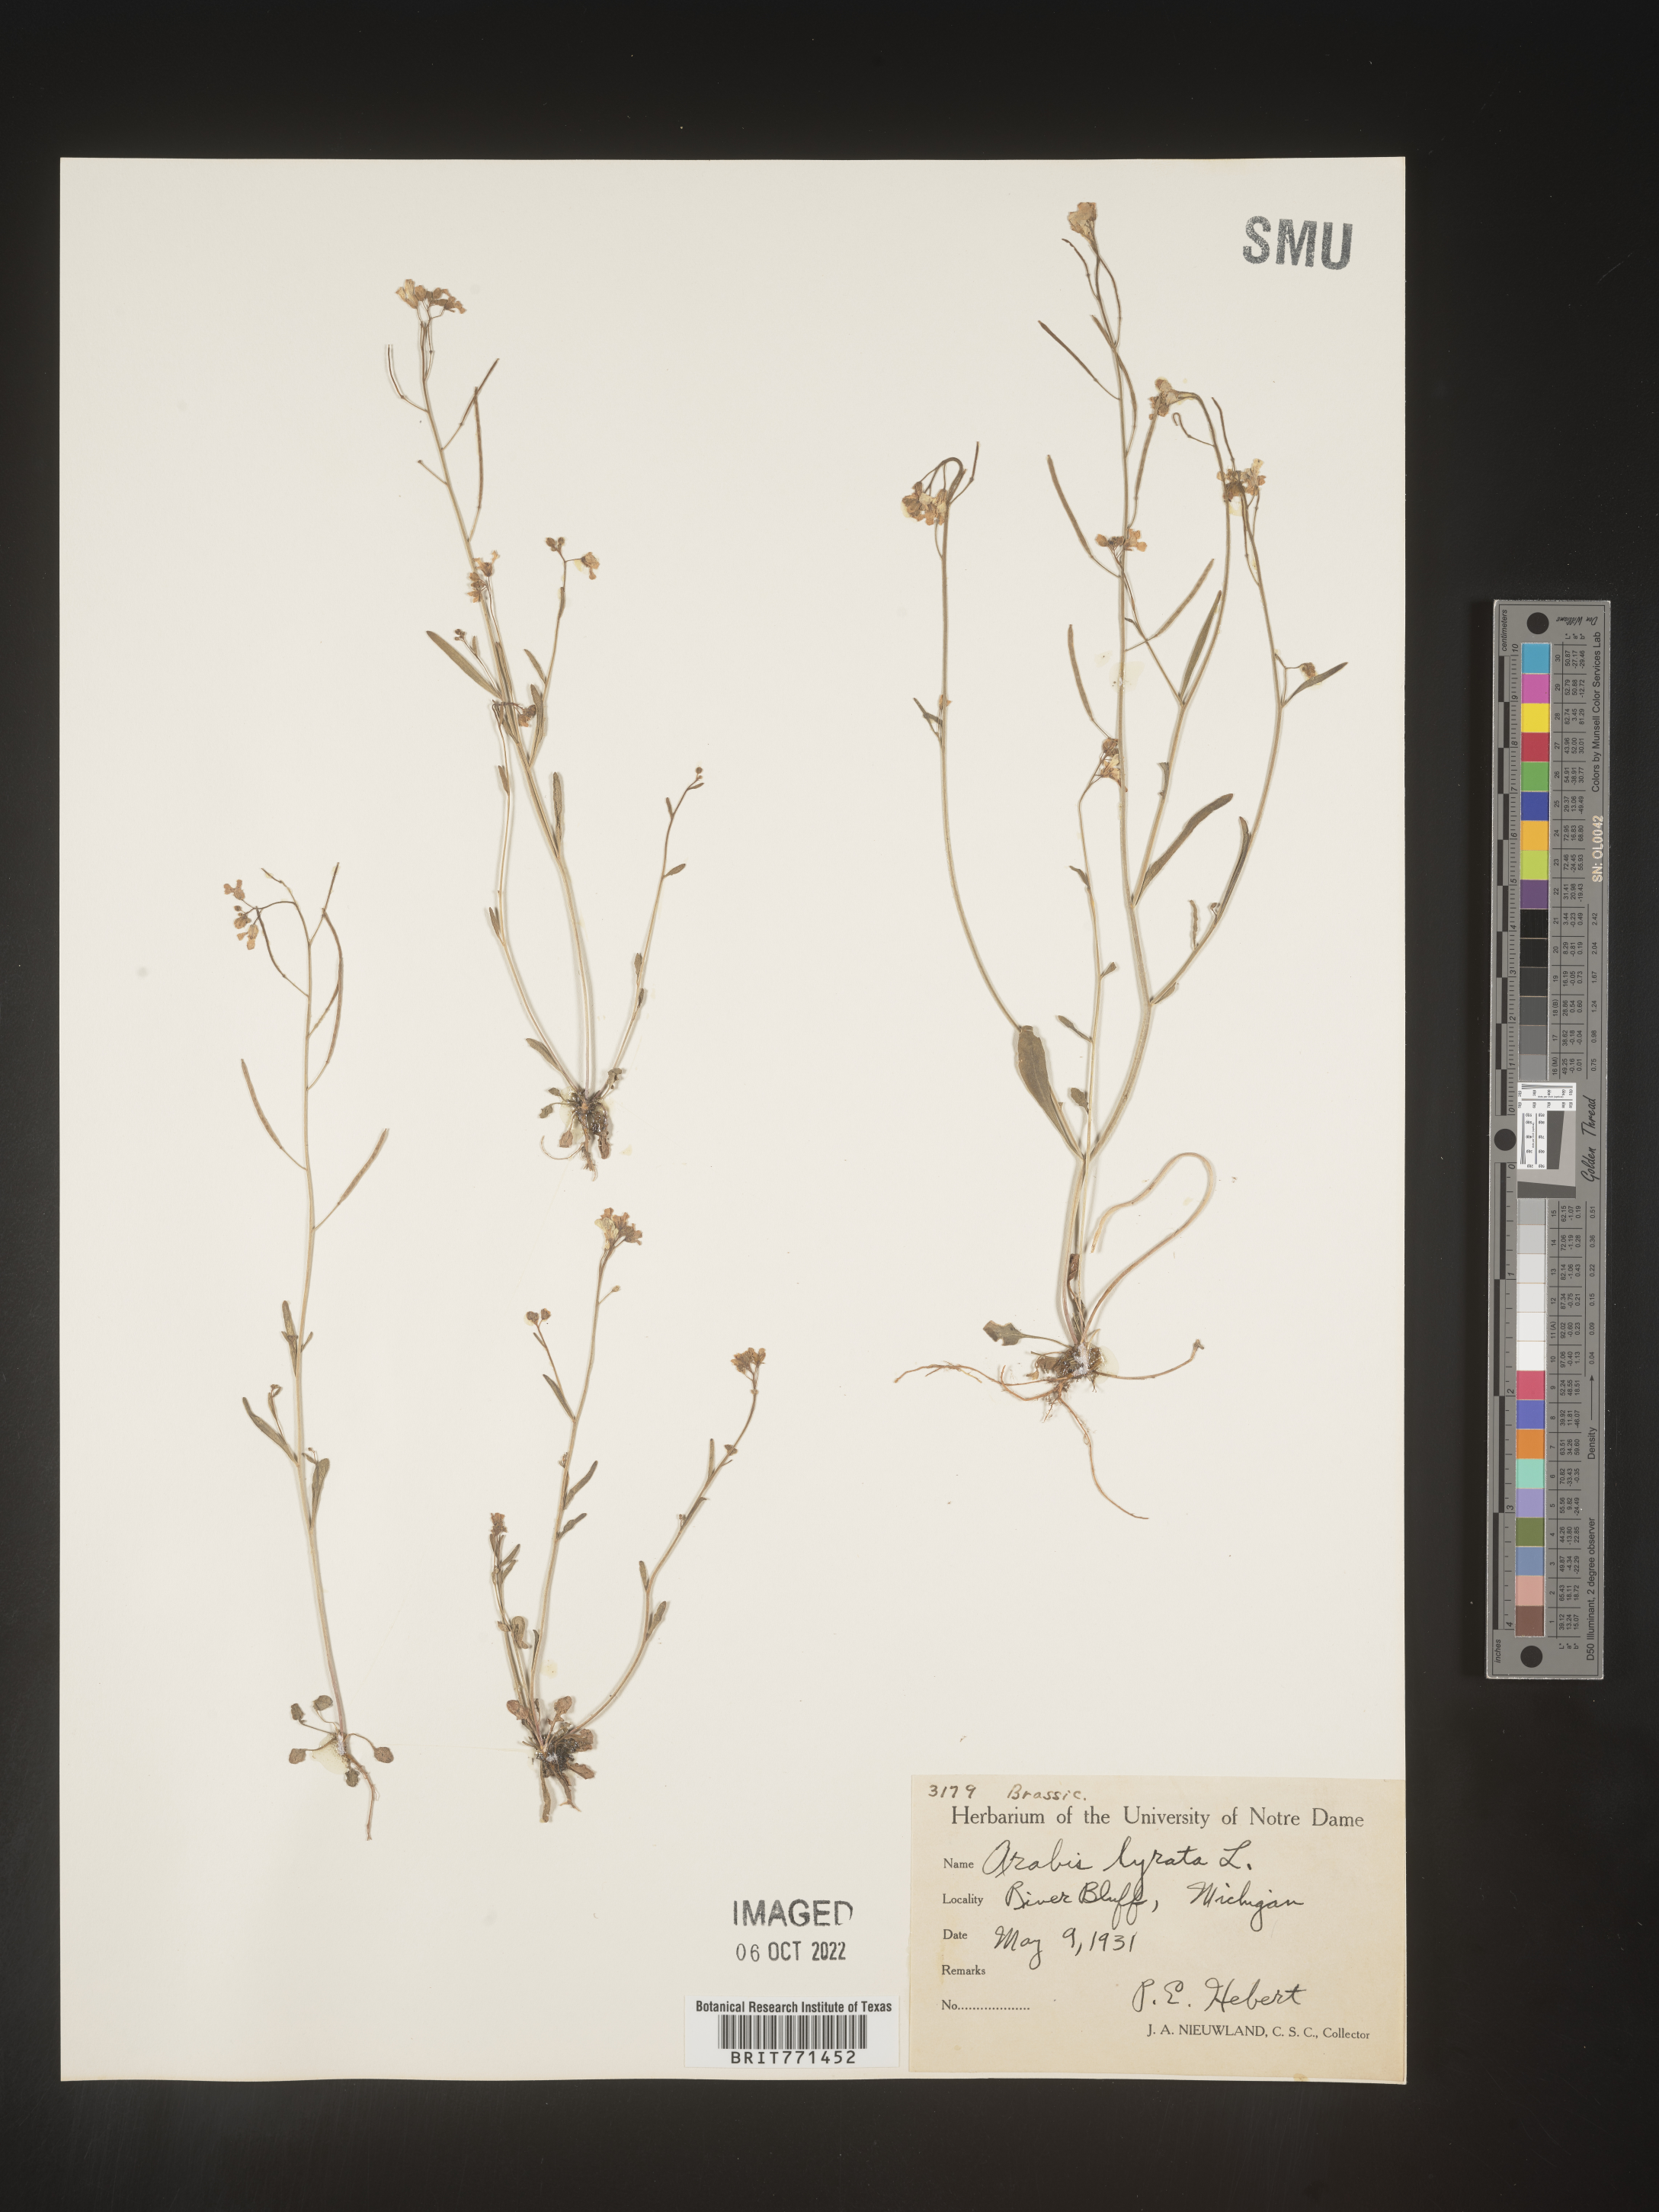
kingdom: Plantae
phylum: Tracheophyta
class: Magnoliopsida
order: Brassicales
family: Brassicaceae
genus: Arabidopsis
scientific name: Arabidopsis lyrata
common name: Lyrate rockcress
